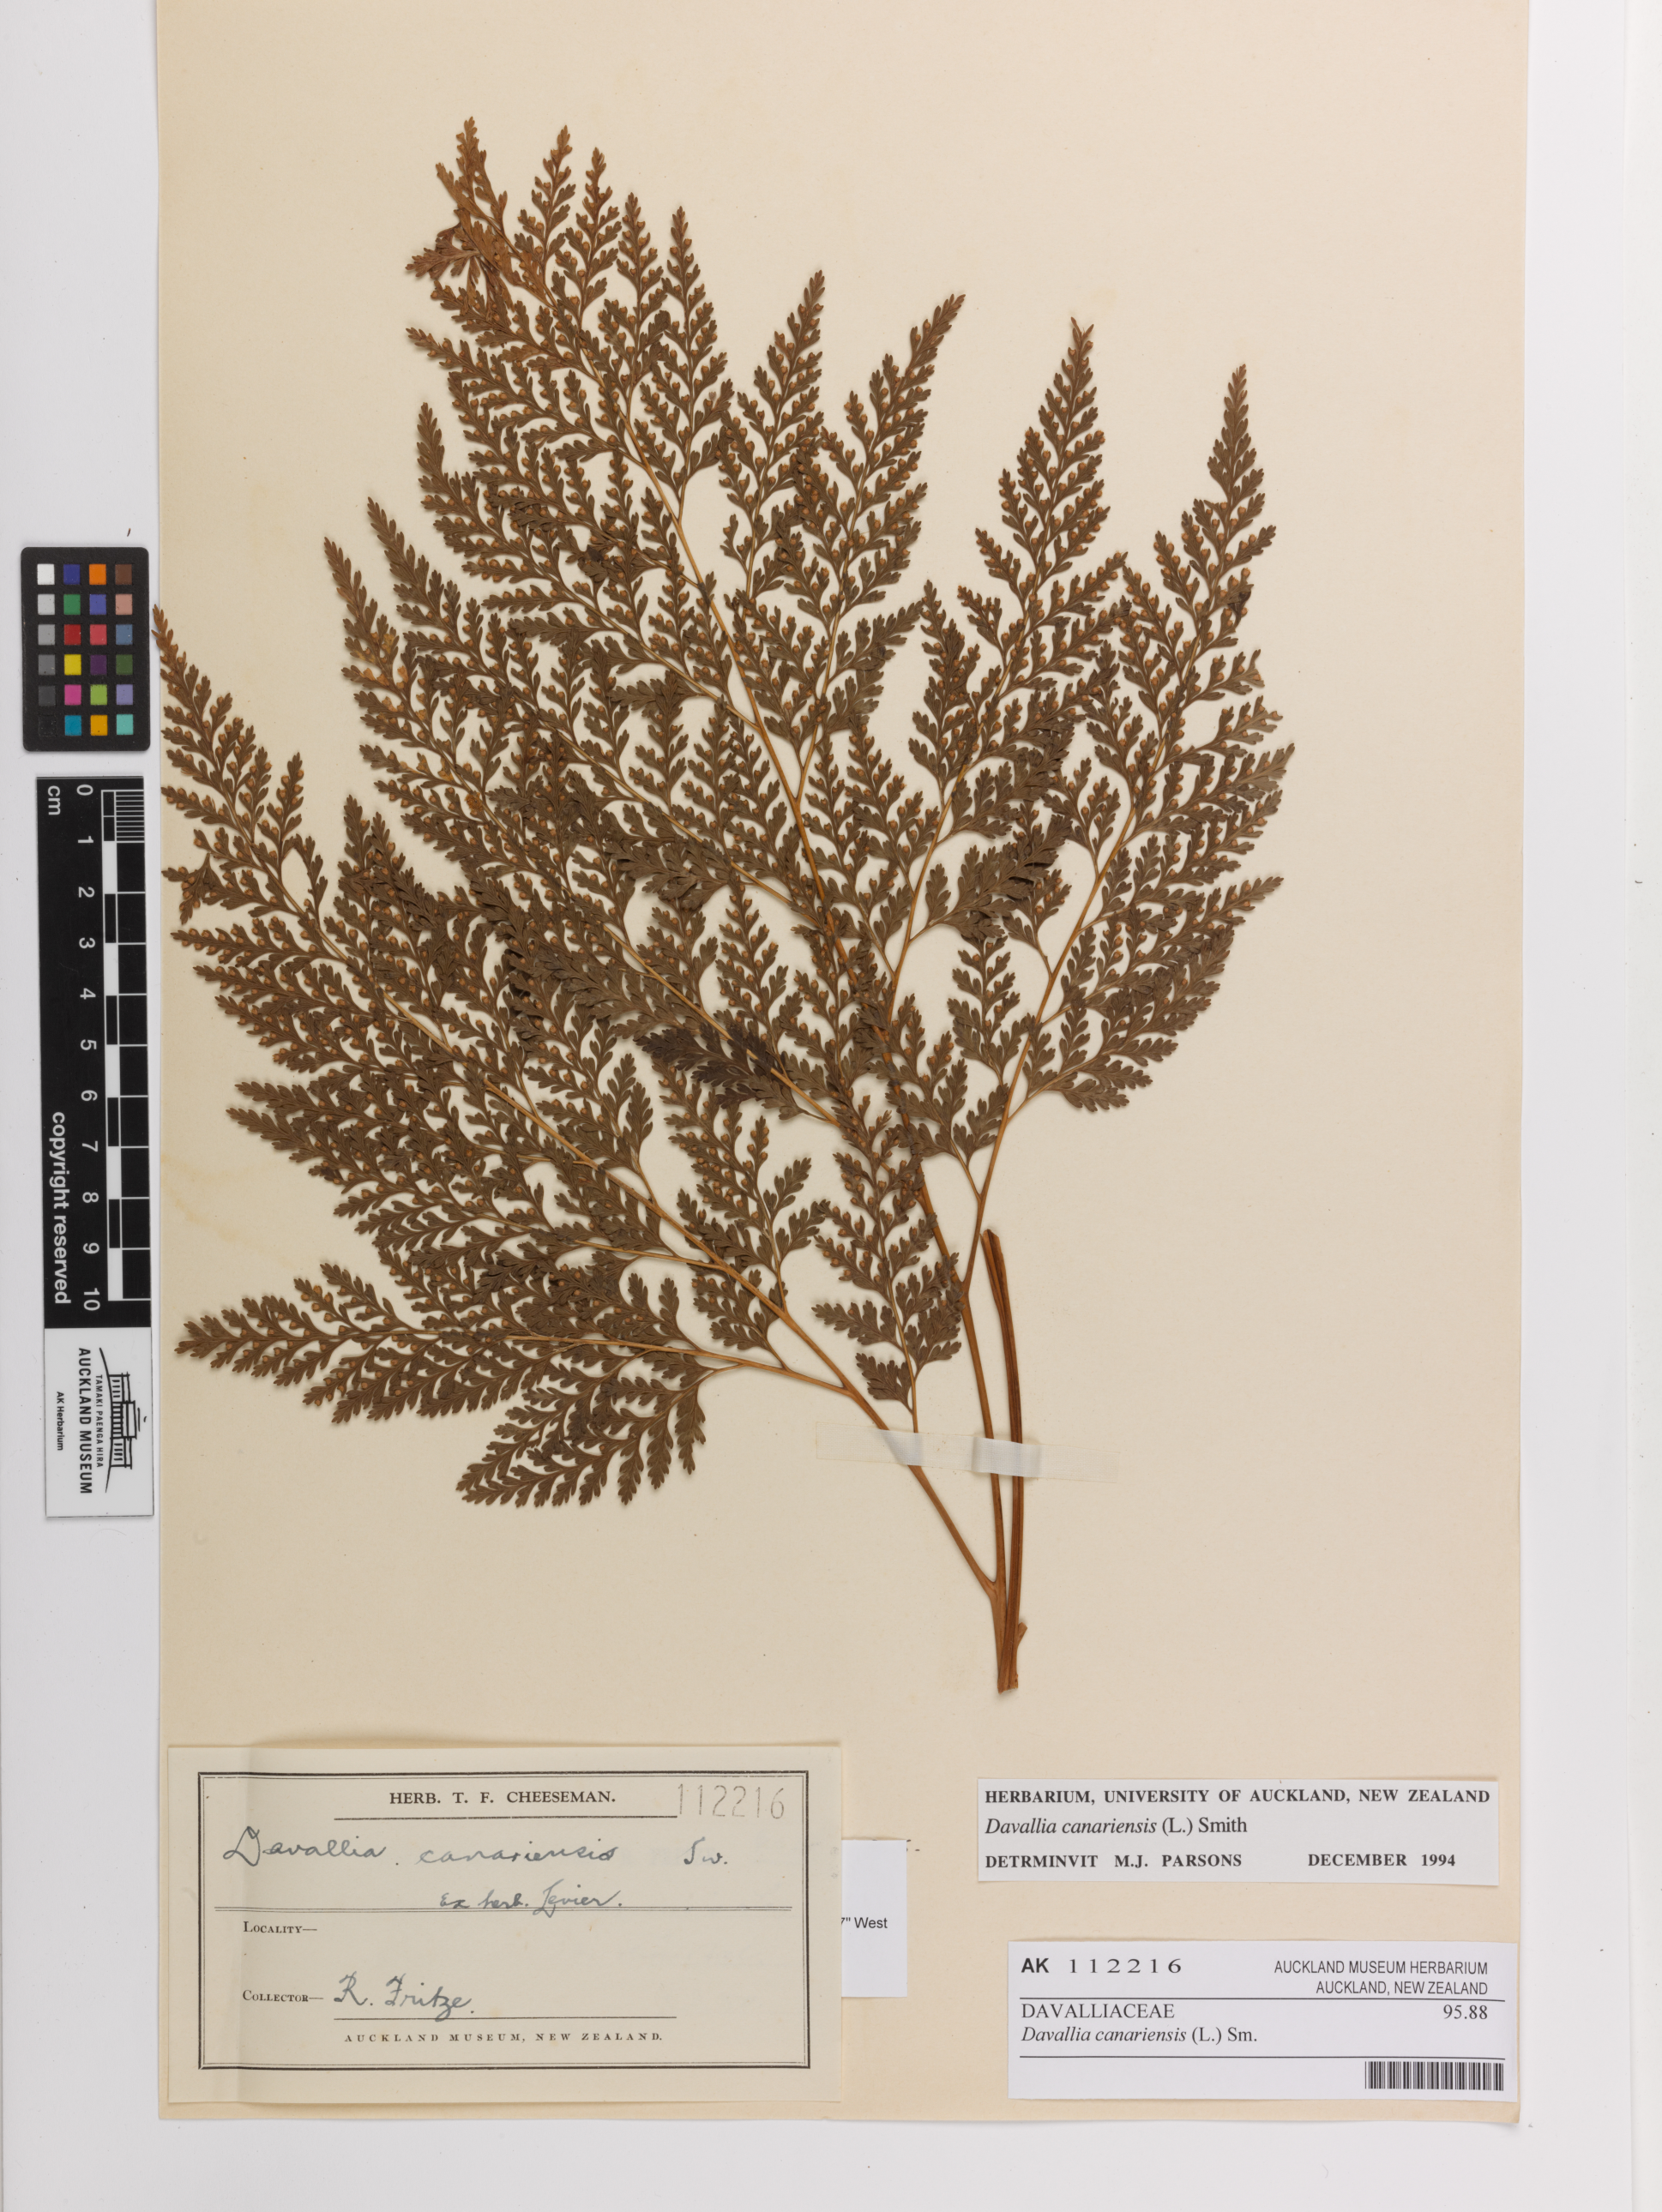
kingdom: Plantae
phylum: Tracheophyta
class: Polypodiopsida
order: Polypodiales
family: Davalliaceae
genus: Davallia
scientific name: Davallia canariensis
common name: Hare's-foot fern
